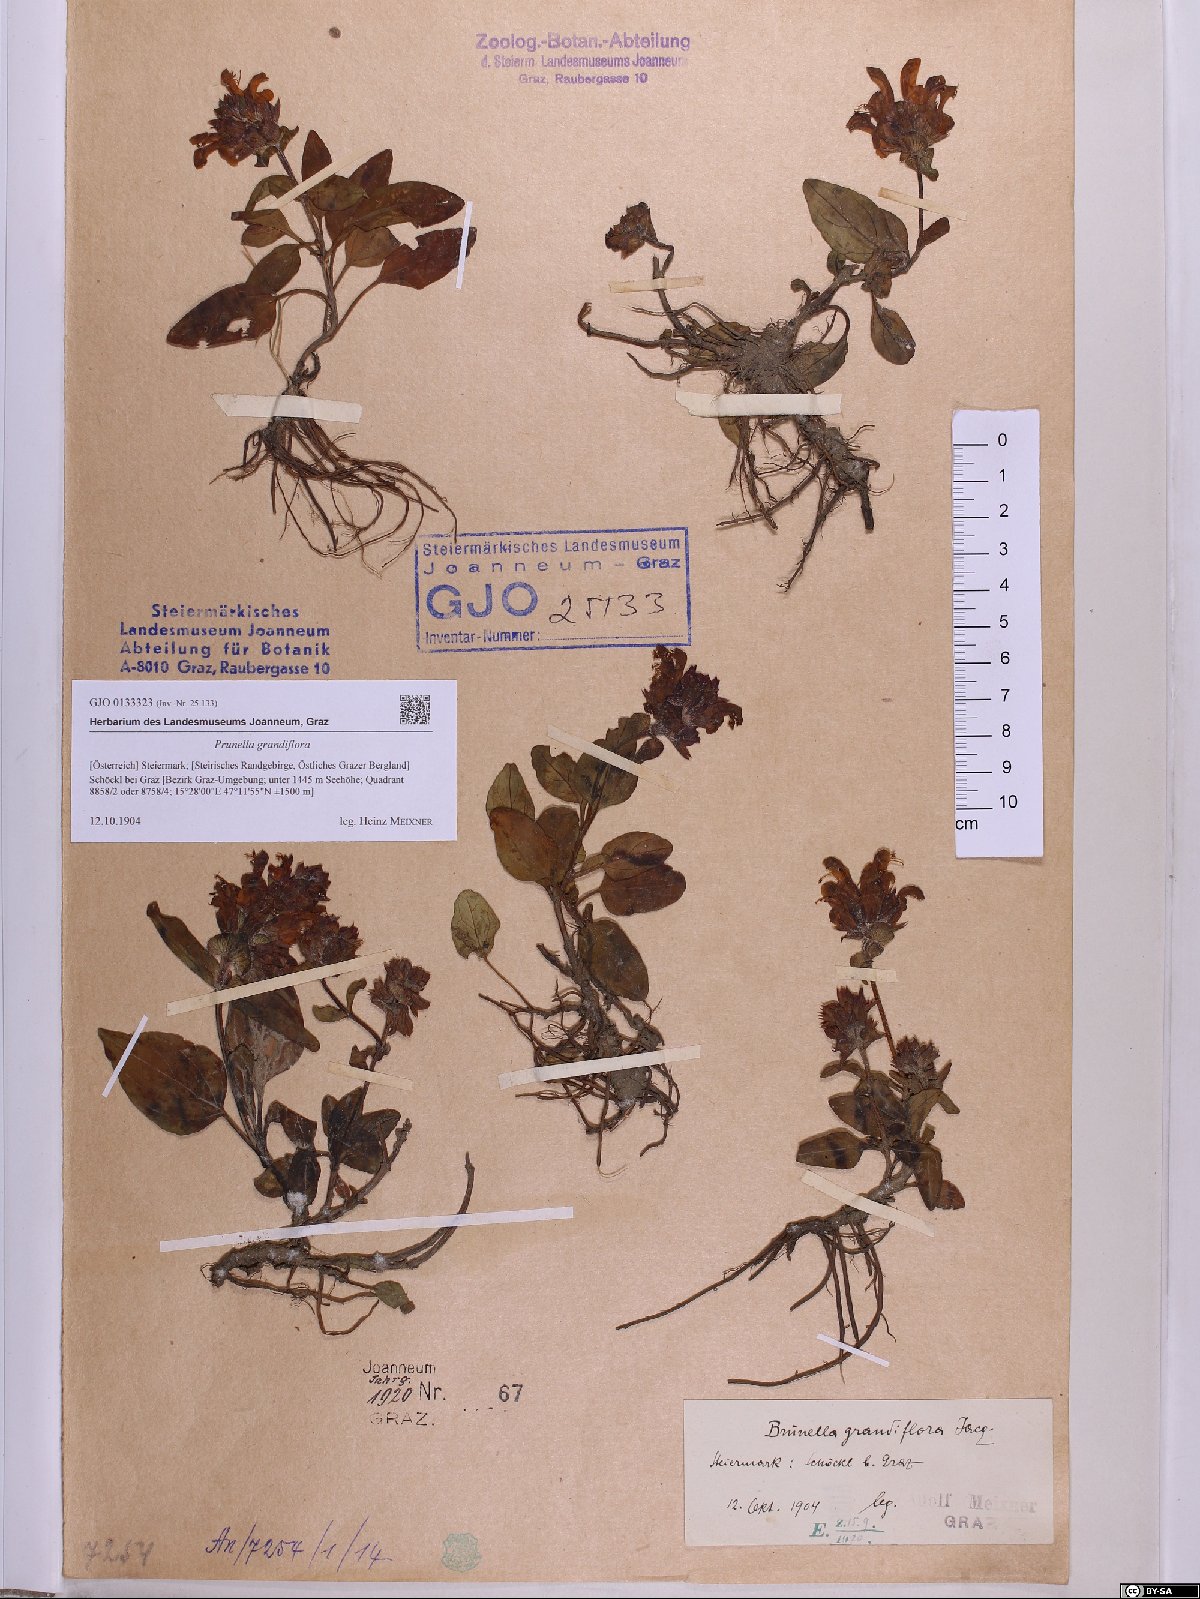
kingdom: Plantae
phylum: Tracheophyta
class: Magnoliopsida
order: Lamiales
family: Lamiaceae
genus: Prunella
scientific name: Prunella grandiflora
